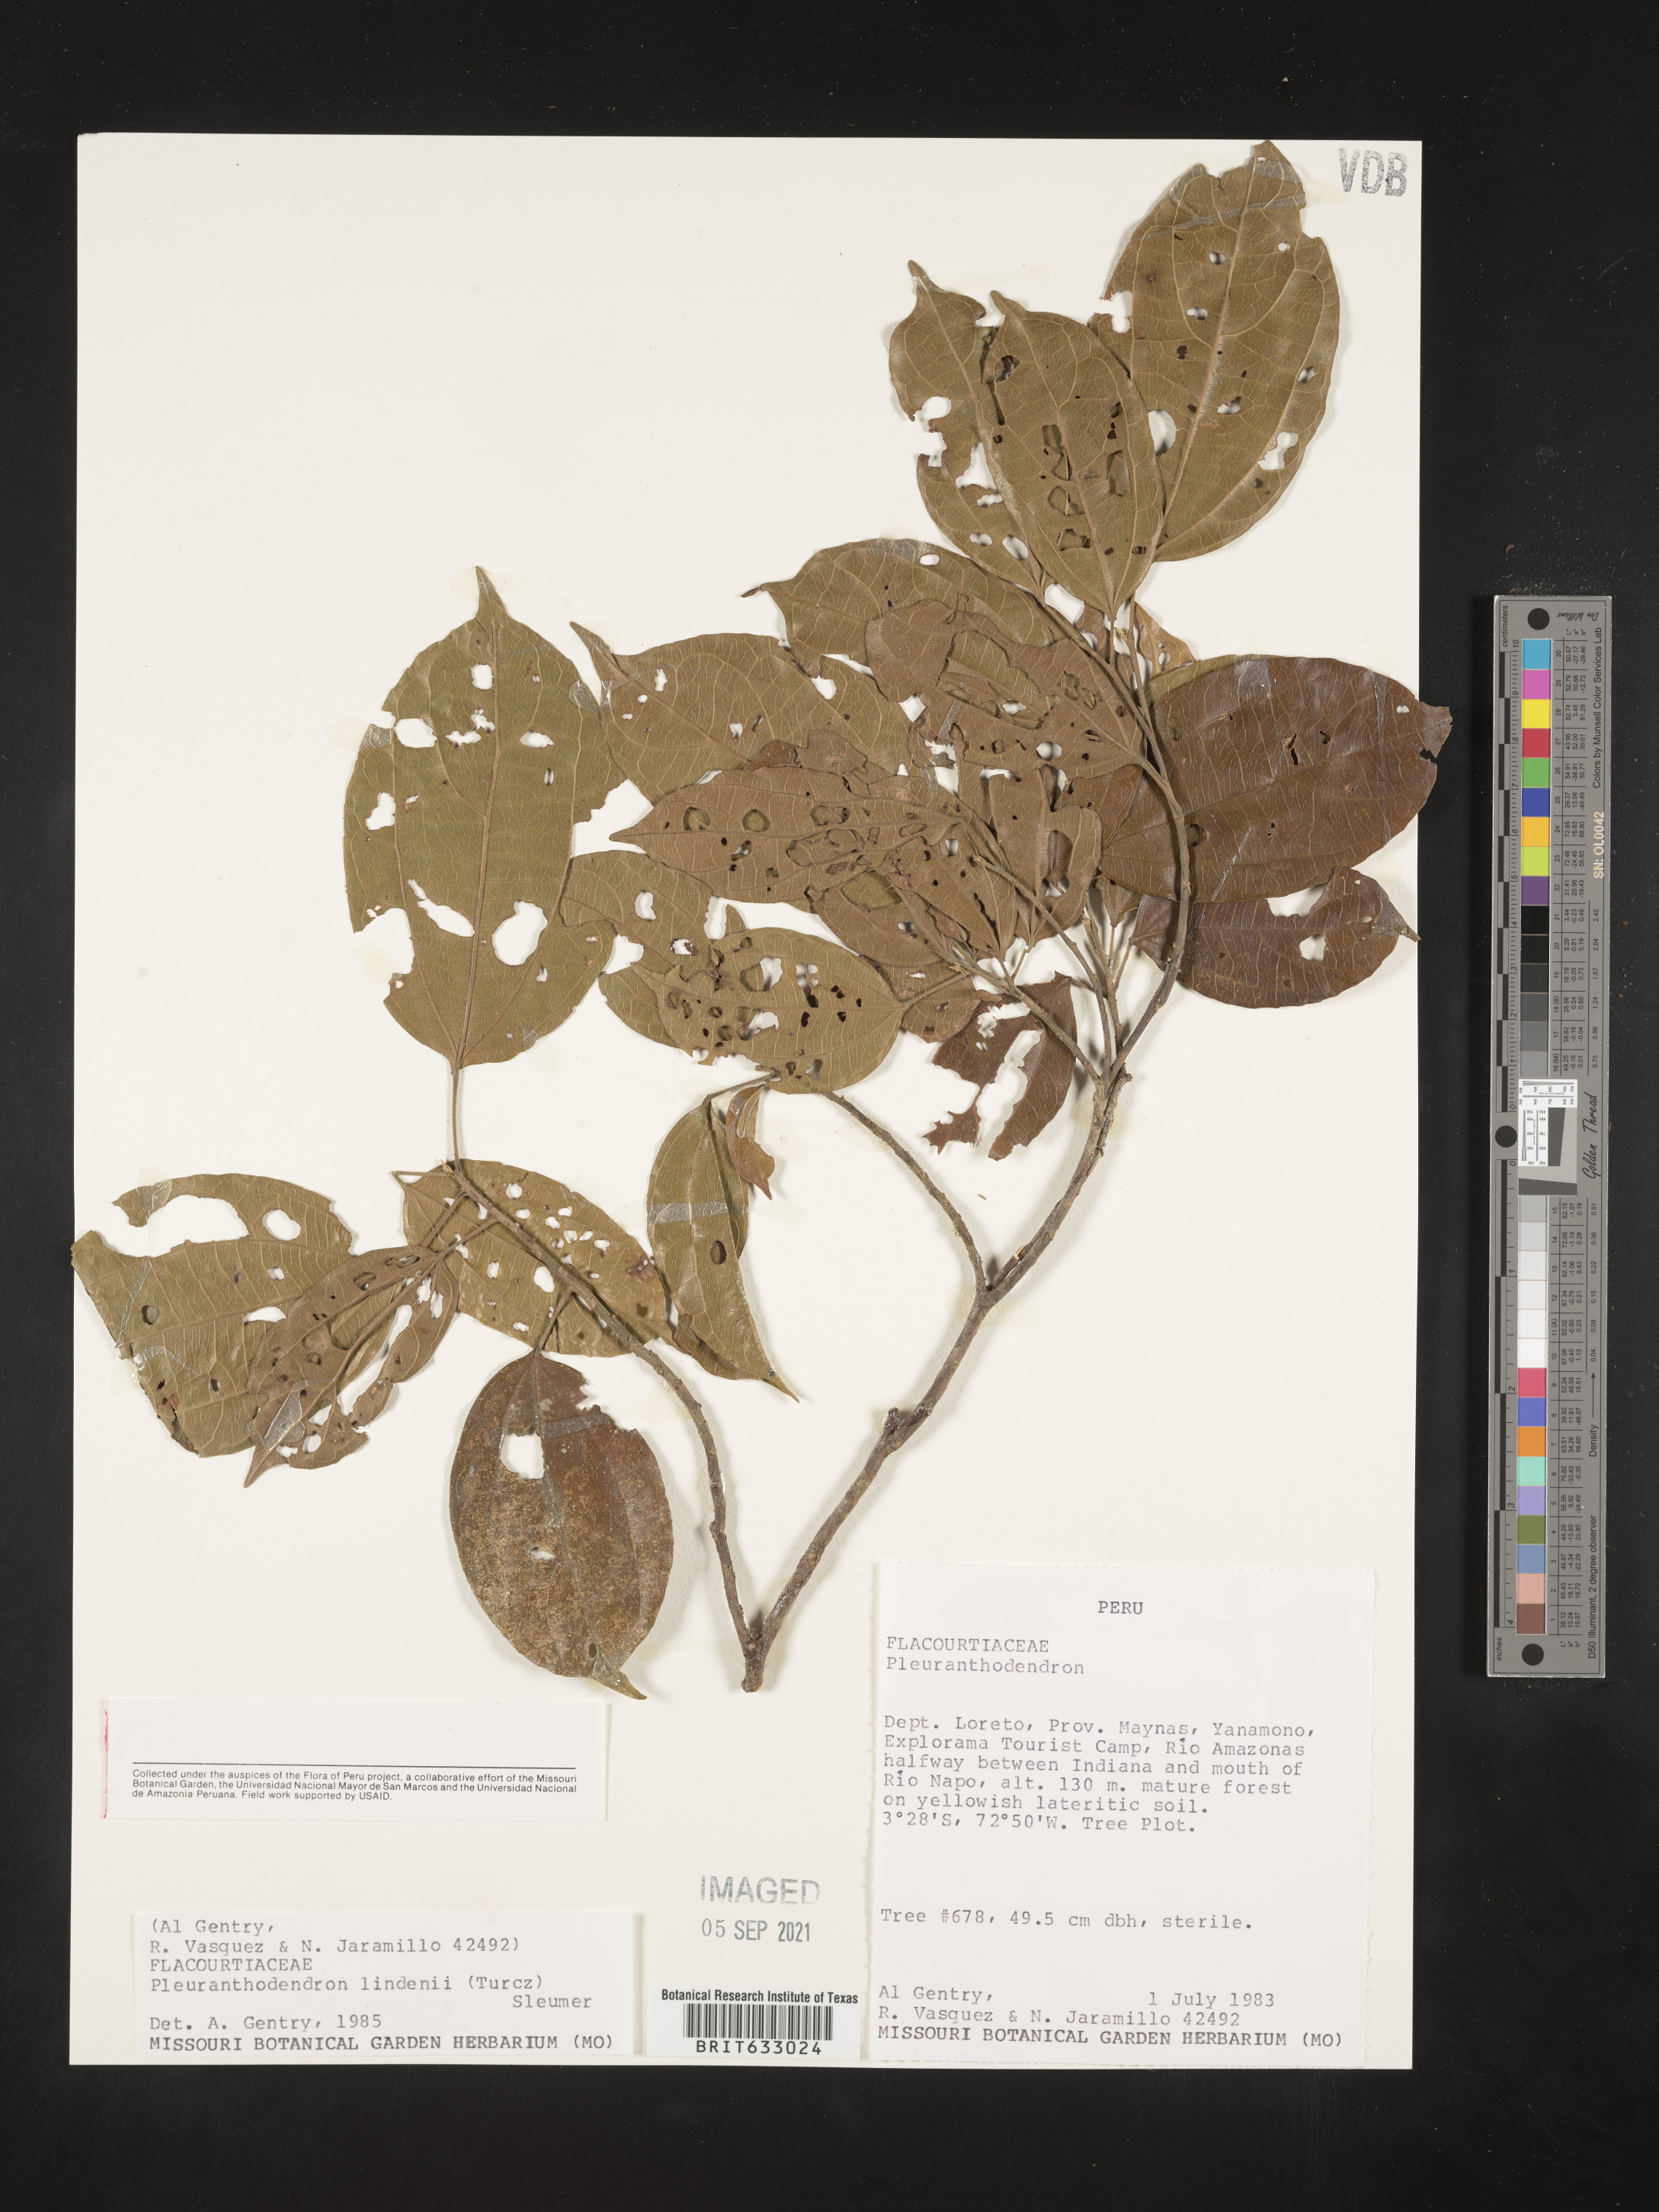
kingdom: Plantae
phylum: Tracheophyta
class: Magnoliopsida
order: Malpighiales
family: Salicaceae
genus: Prockia
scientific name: Prockia
